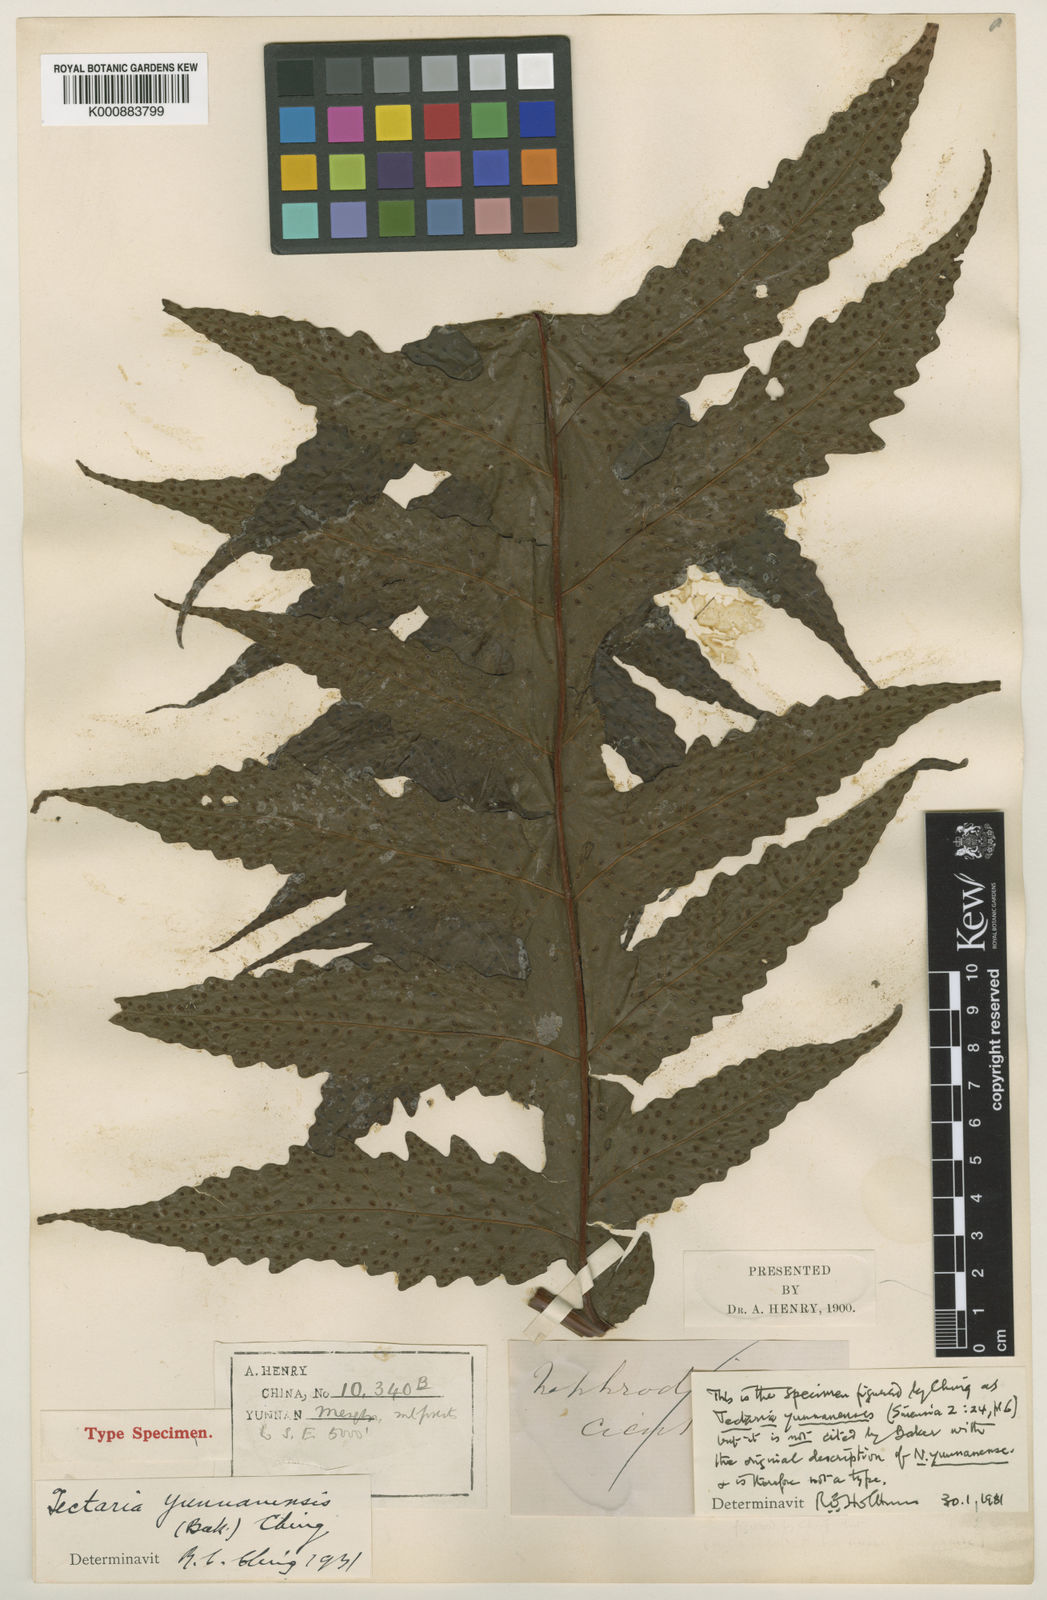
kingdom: Plantae
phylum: Tracheophyta
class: Polypodiopsida
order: Polypodiales
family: Tectariaceae
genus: Tectaria
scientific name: Tectaria griffithii
